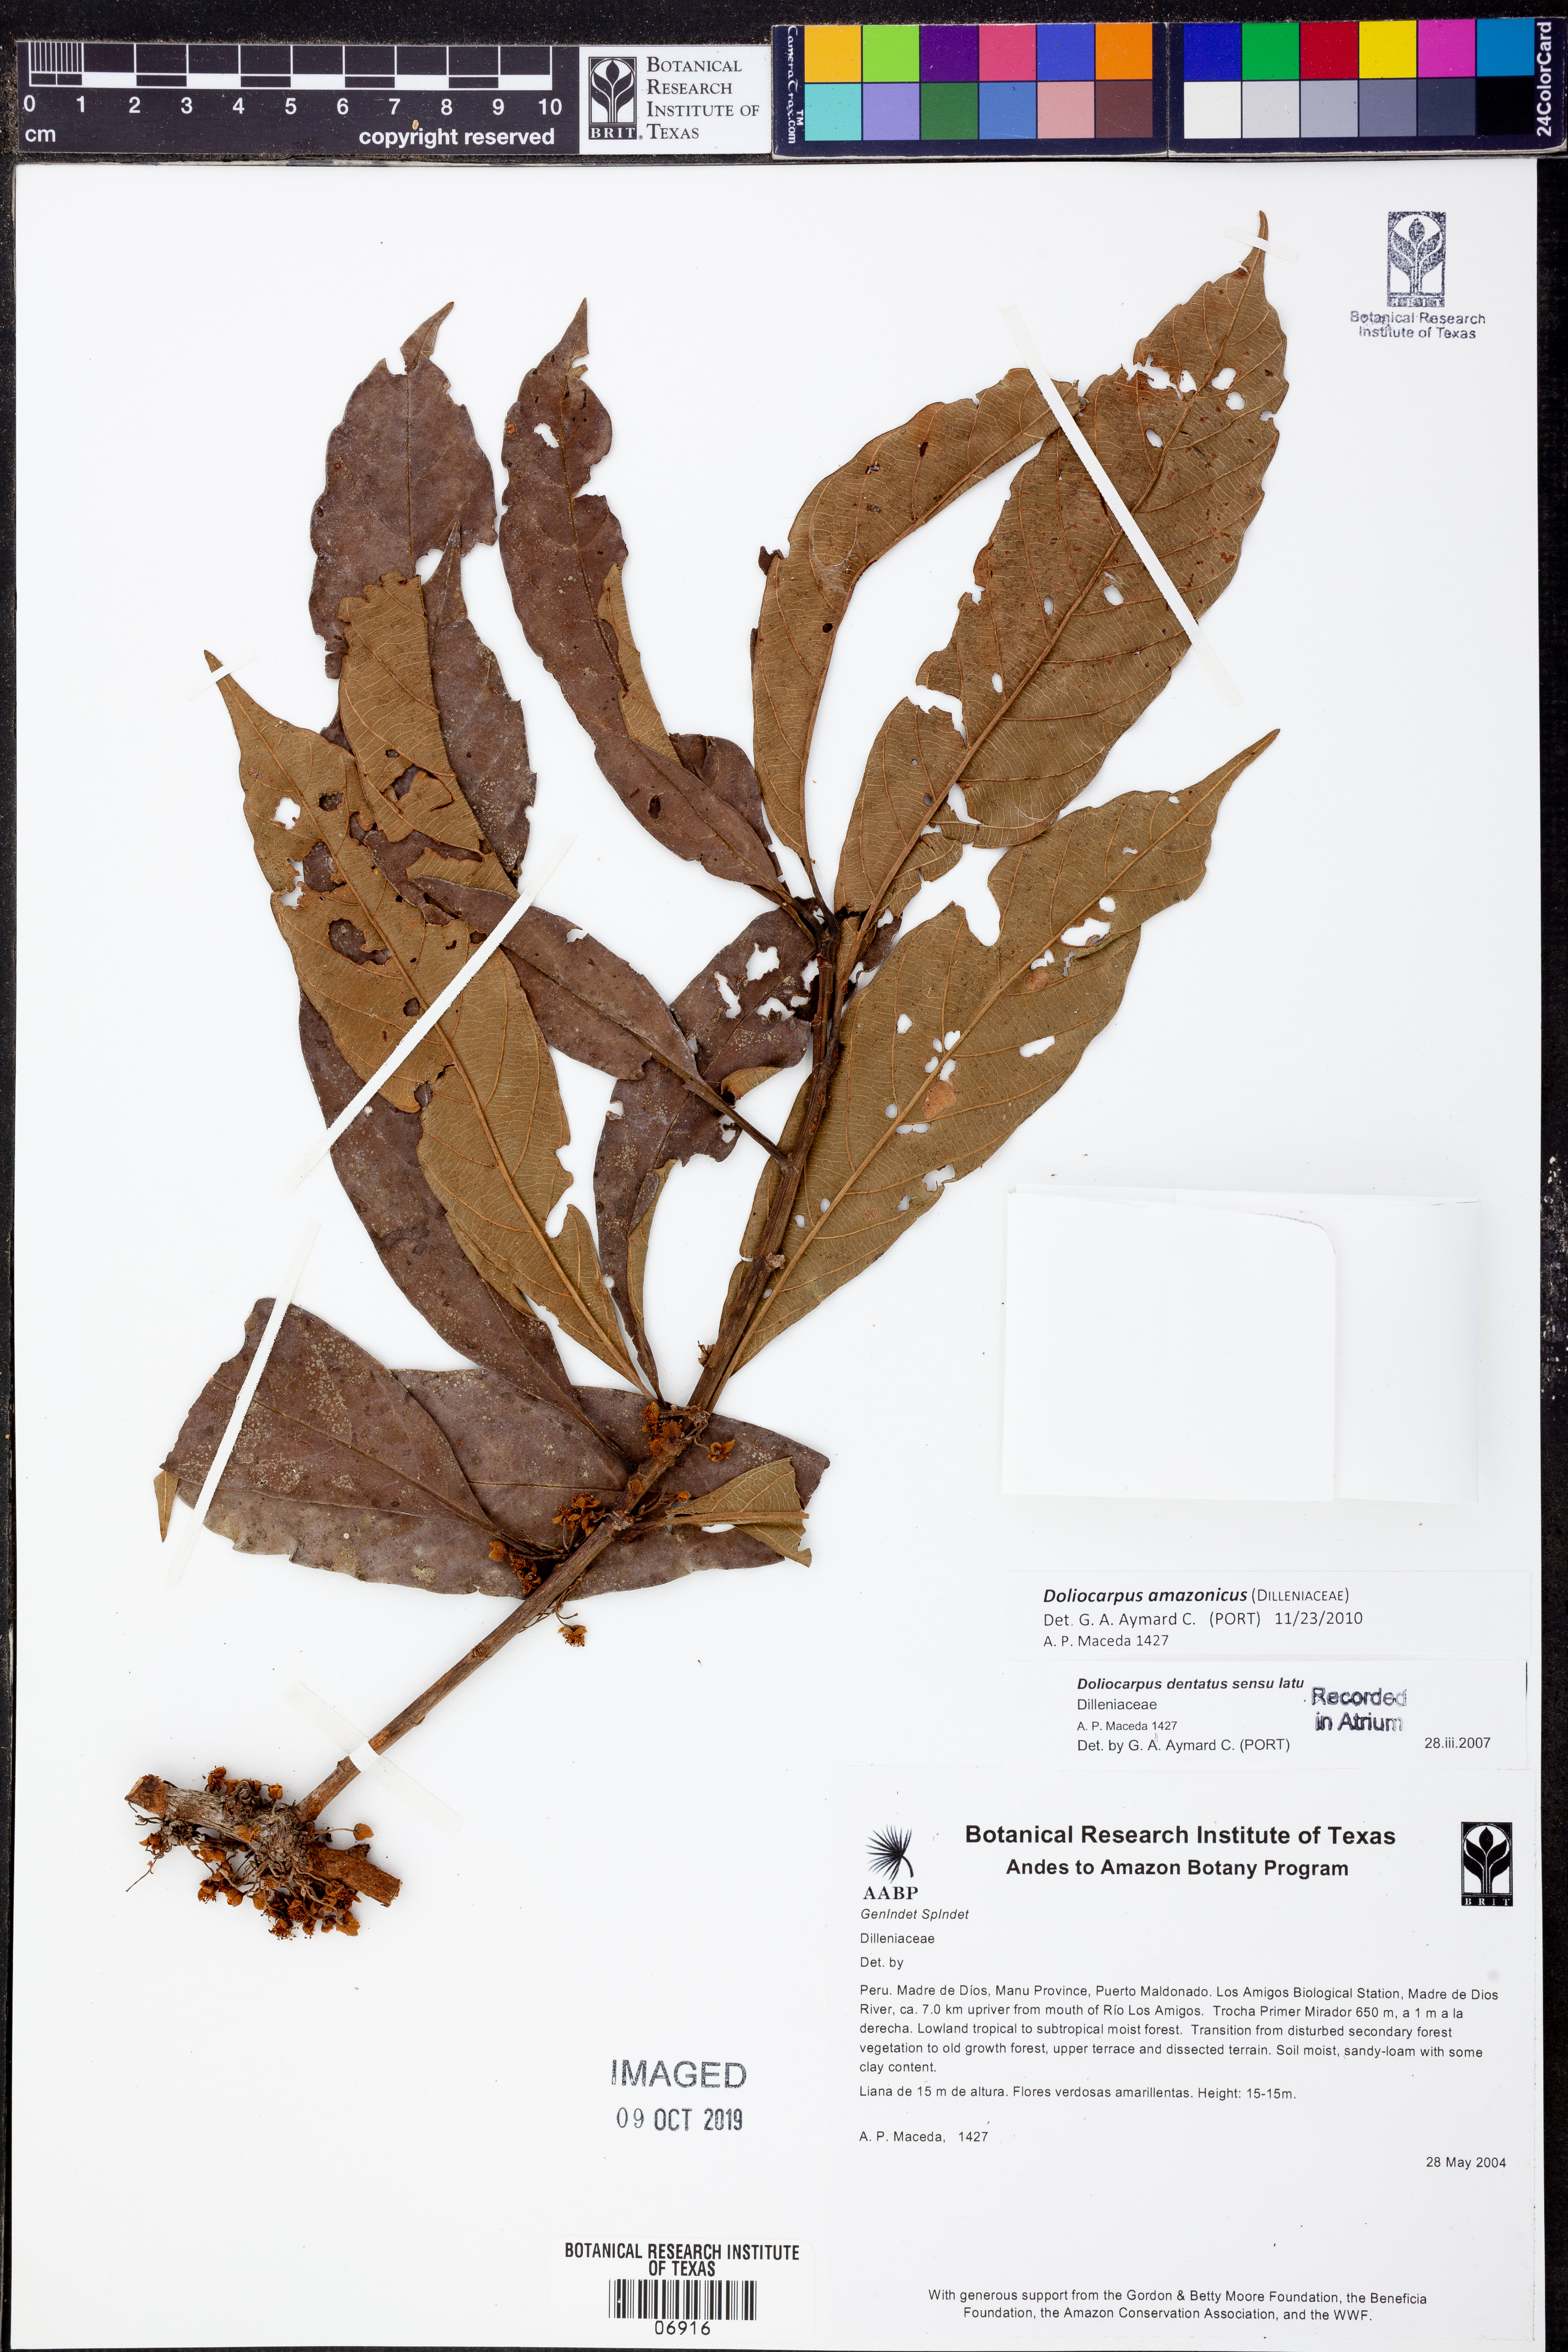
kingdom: Plantae
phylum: Tracheophyta
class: Magnoliopsida
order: Dilleniales
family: Dilleniaceae
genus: Doliocarpus
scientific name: Doliocarpus
